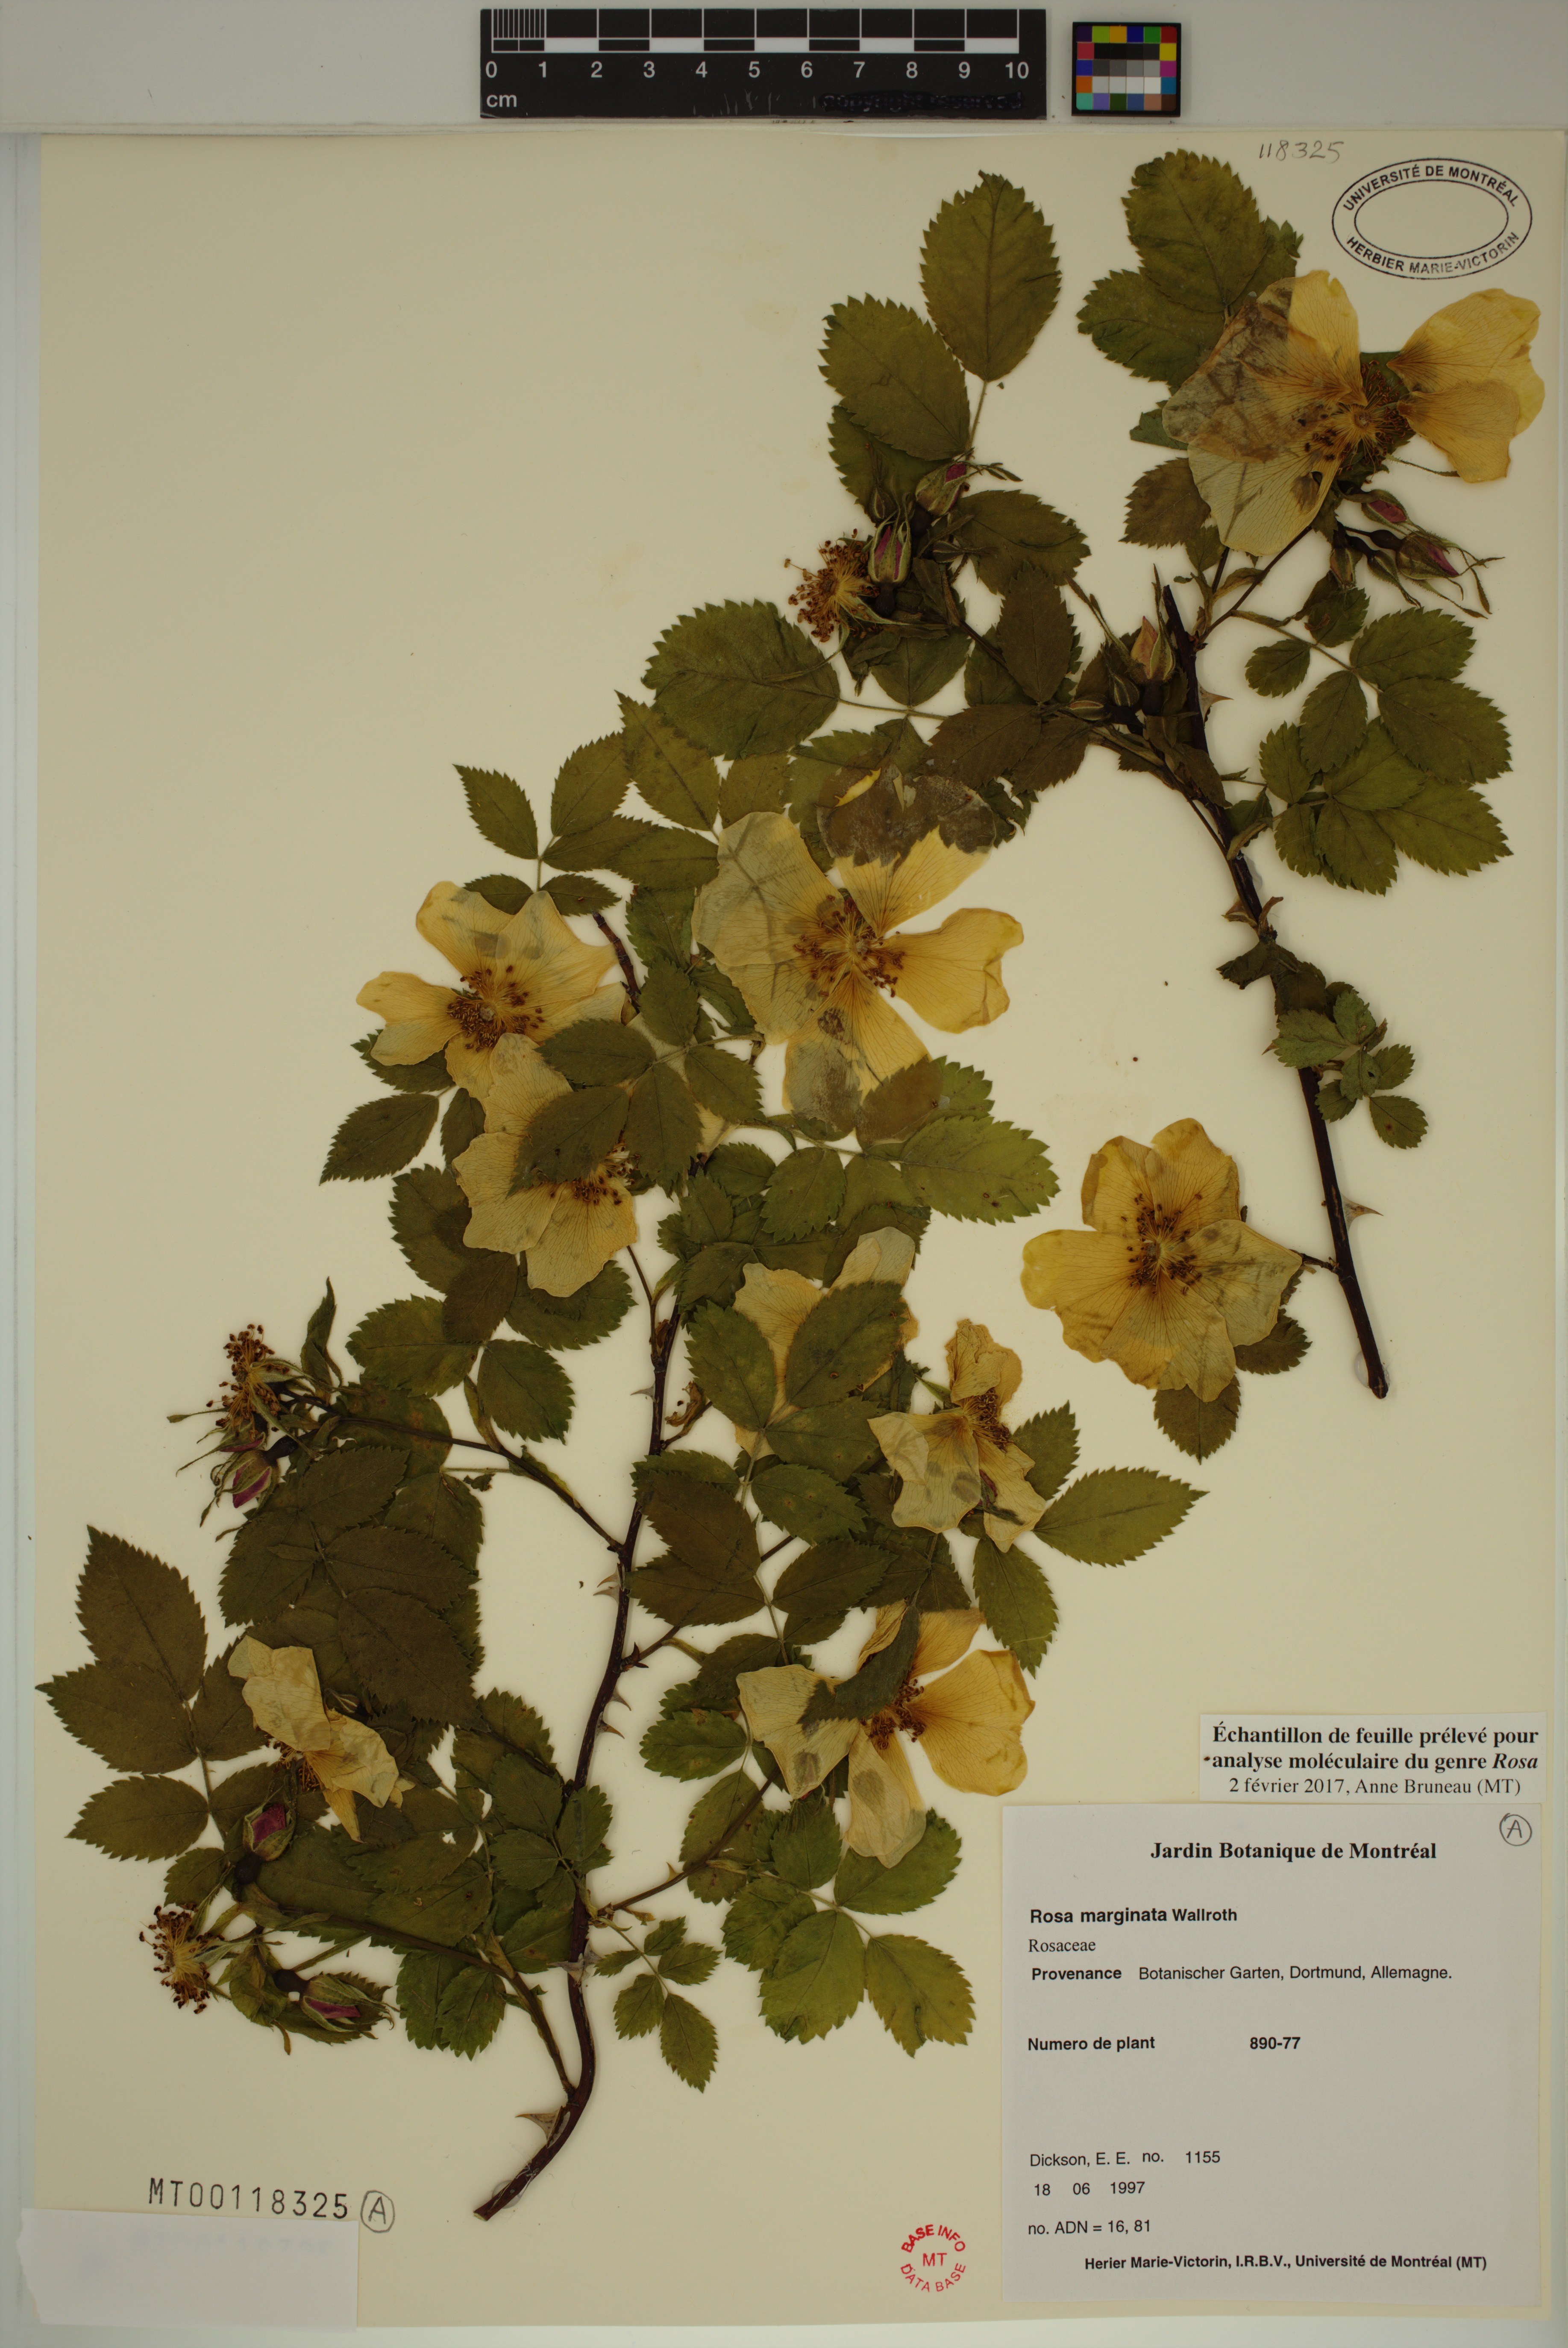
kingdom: Plantae
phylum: Tracheophyta
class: Magnoliopsida
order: Rosales
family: Rosaceae
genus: Rosa
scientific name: Rosa marginata
